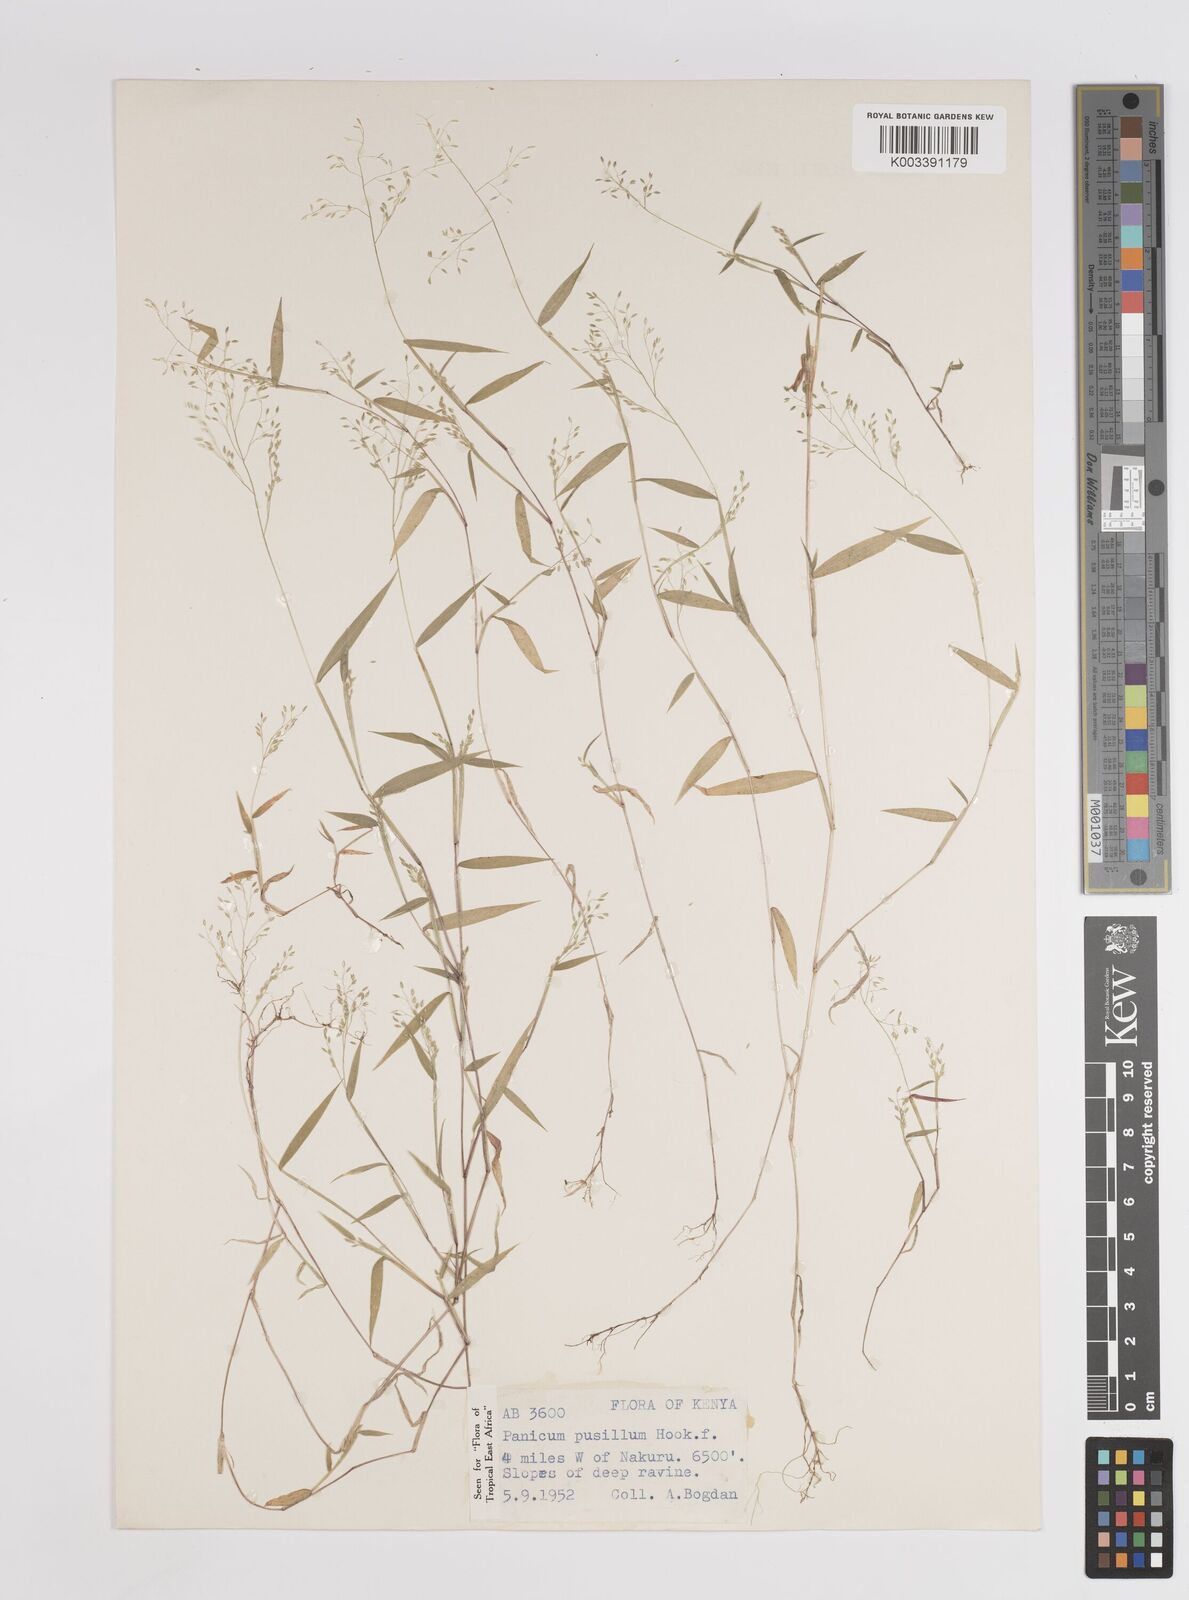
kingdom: Plantae
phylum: Tracheophyta
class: Liliopsida
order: Poales
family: Poaceae
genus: Panicum
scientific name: Panicum pusillum
